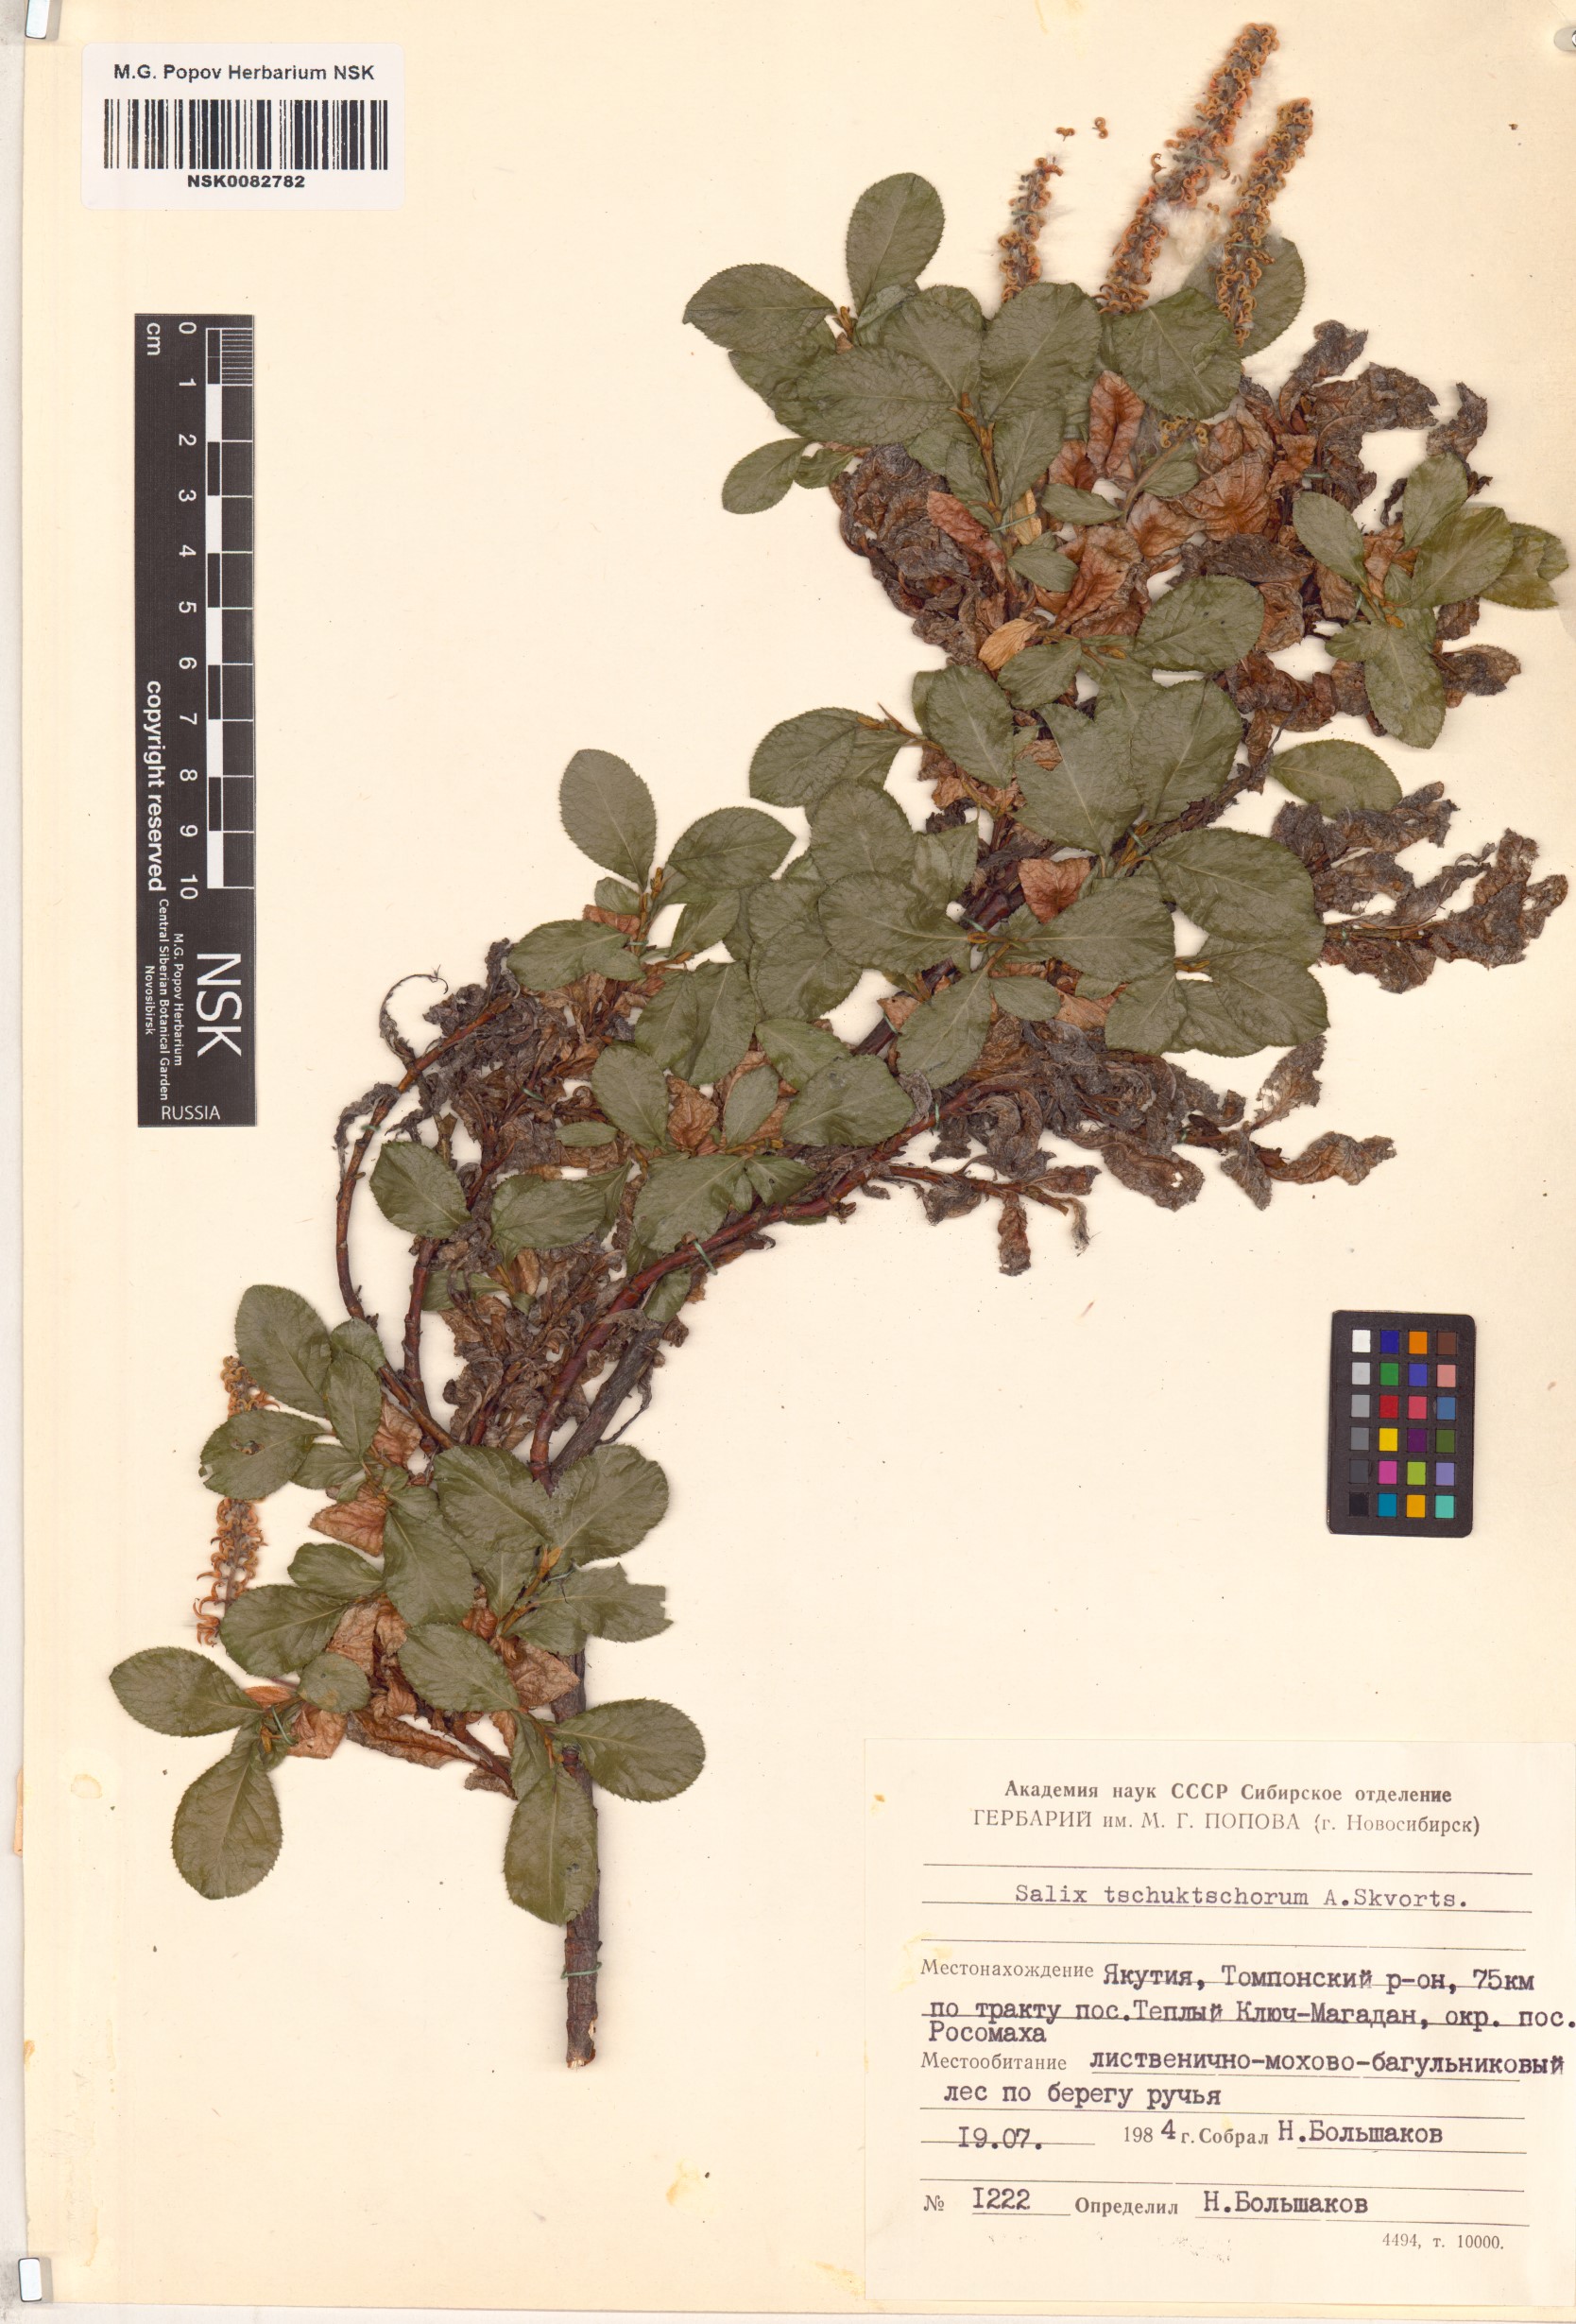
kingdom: Plantae
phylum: Tracheophyta
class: Magnoliopsida
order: Malpighiales
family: Salicaceae
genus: Salix
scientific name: Salix tschuktschorum
